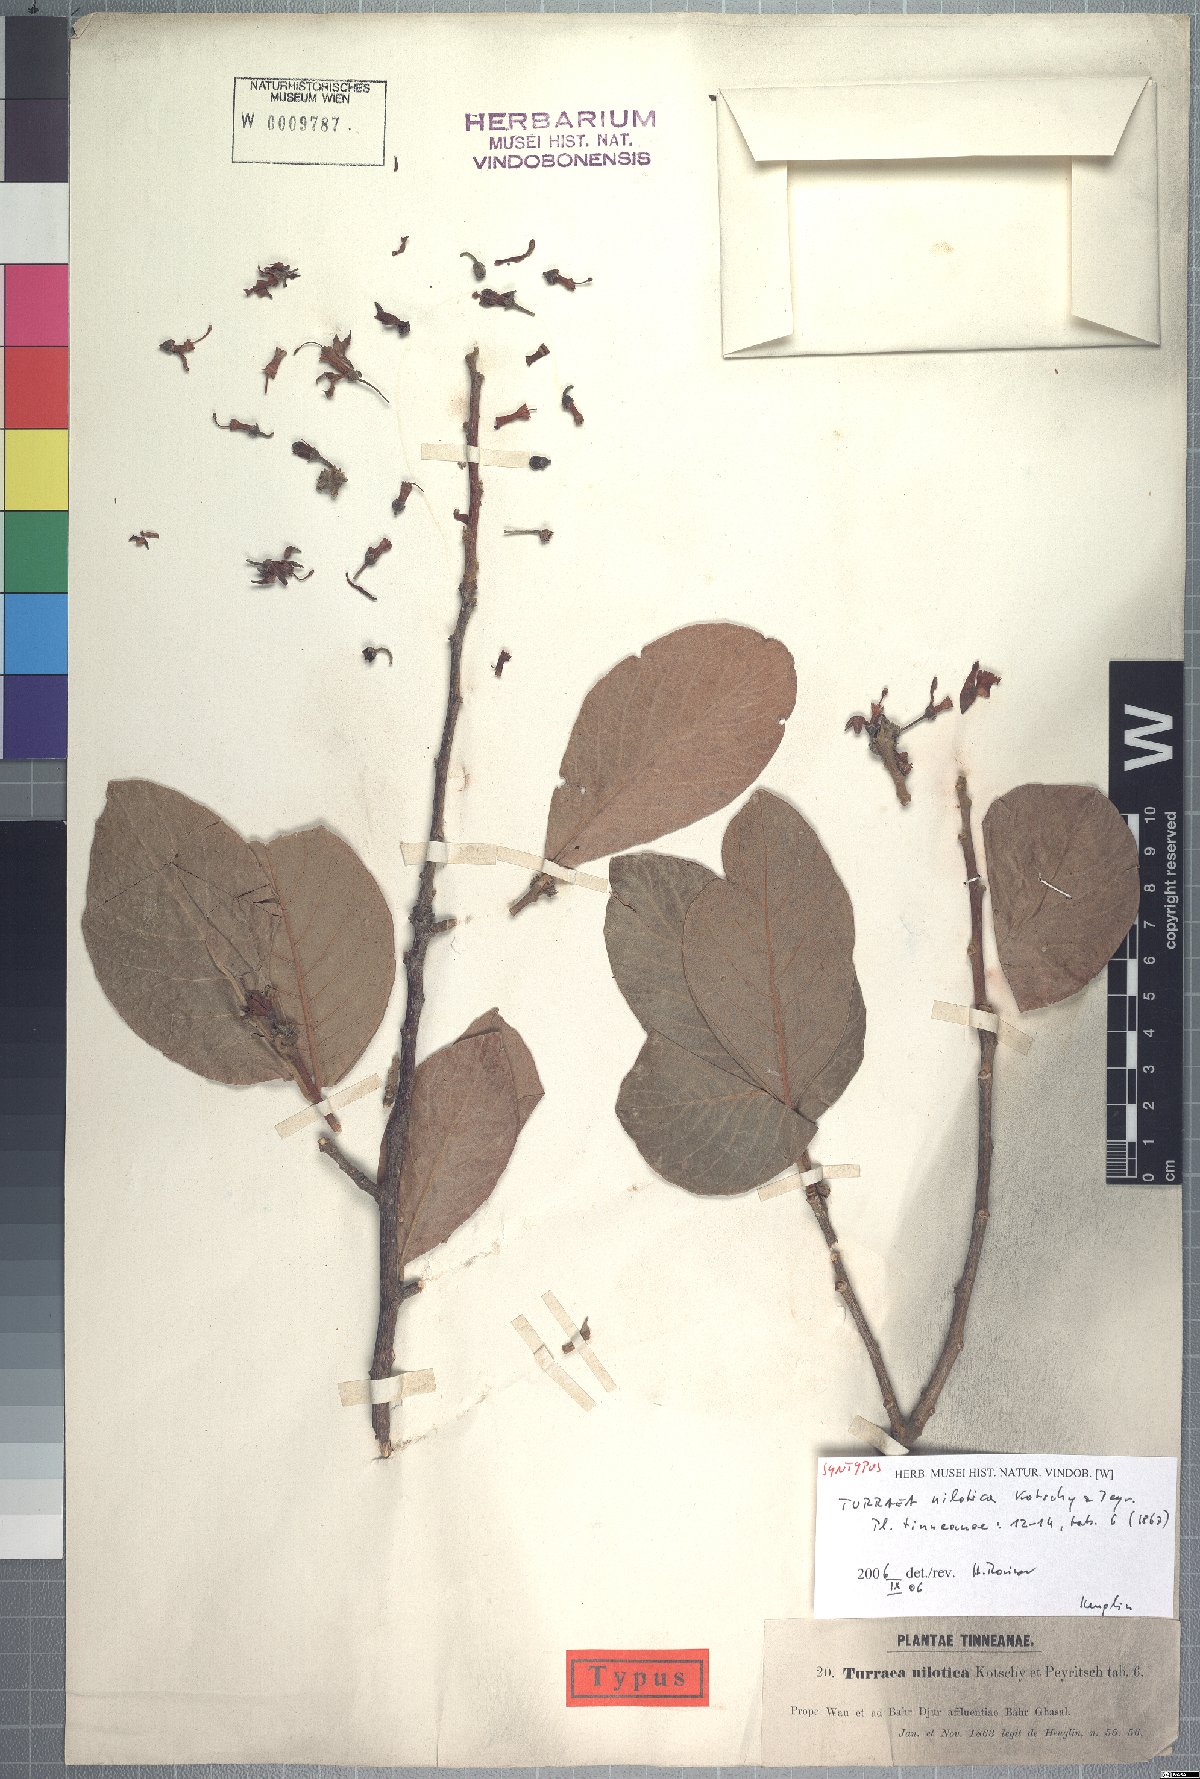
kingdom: Plantae
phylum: Tracheophyta
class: Magnoliopsida
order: Sapindales
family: Meliaceae
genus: Turraea
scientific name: Turraea nilotica
